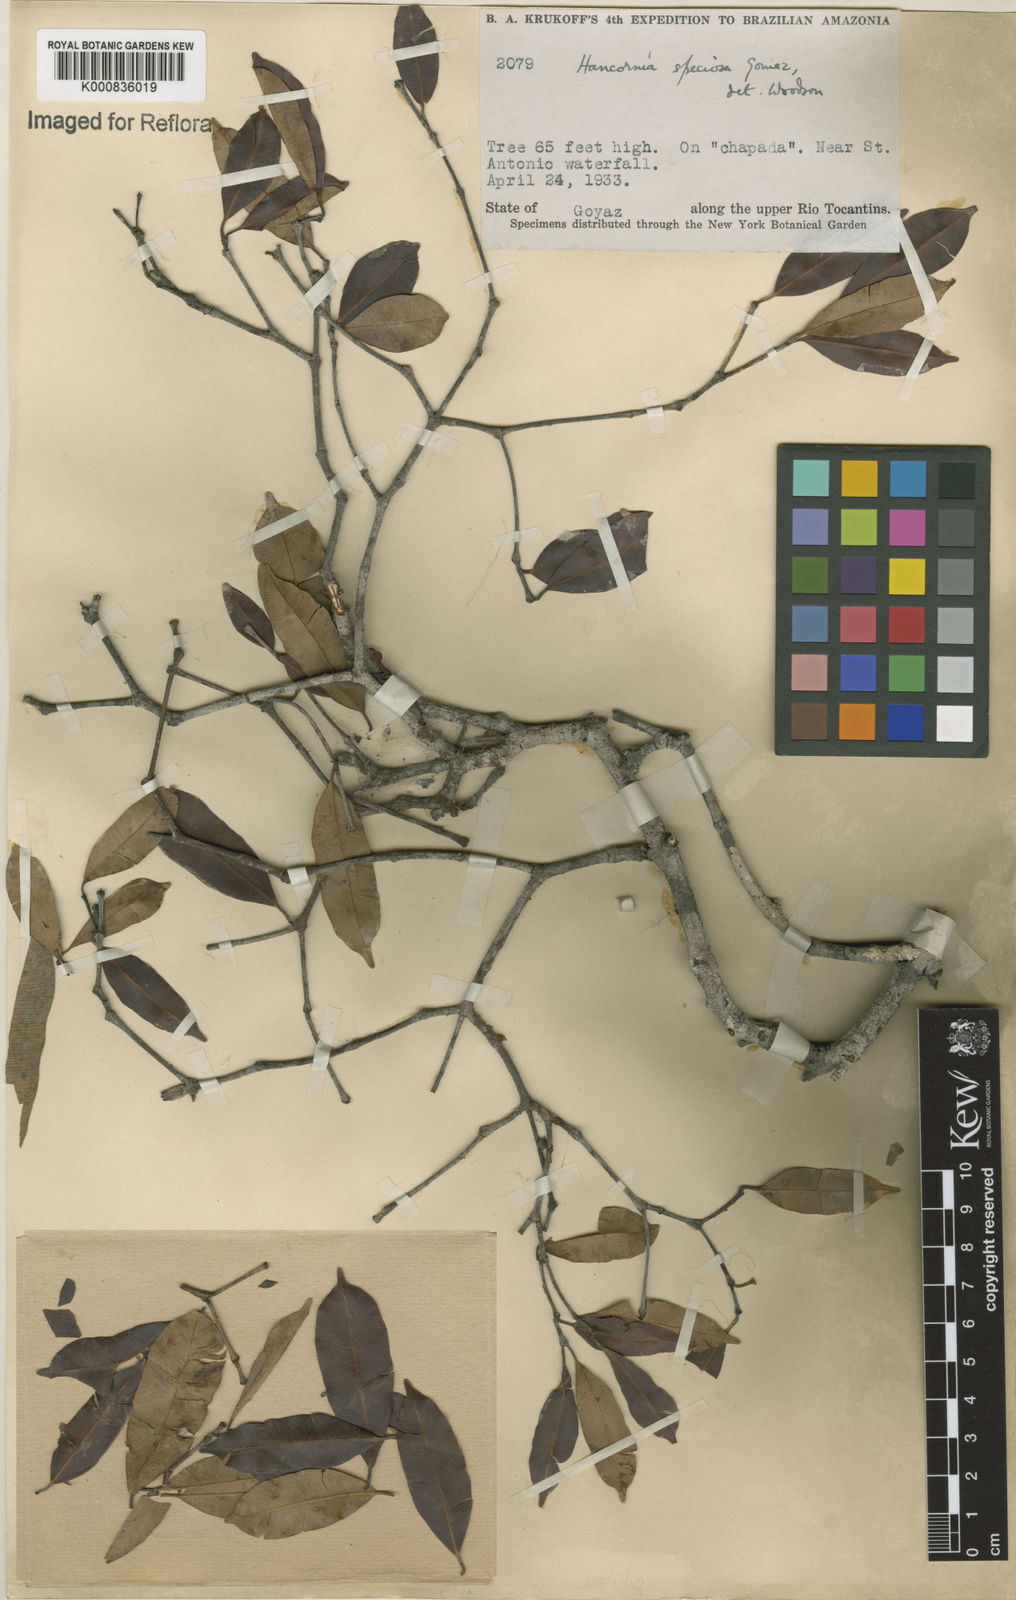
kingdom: Plantae
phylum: Tracheophyta
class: Magnoliopsida
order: Gentianales
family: Apocynaceae
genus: Hancornia
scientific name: Hancornia speciosa
